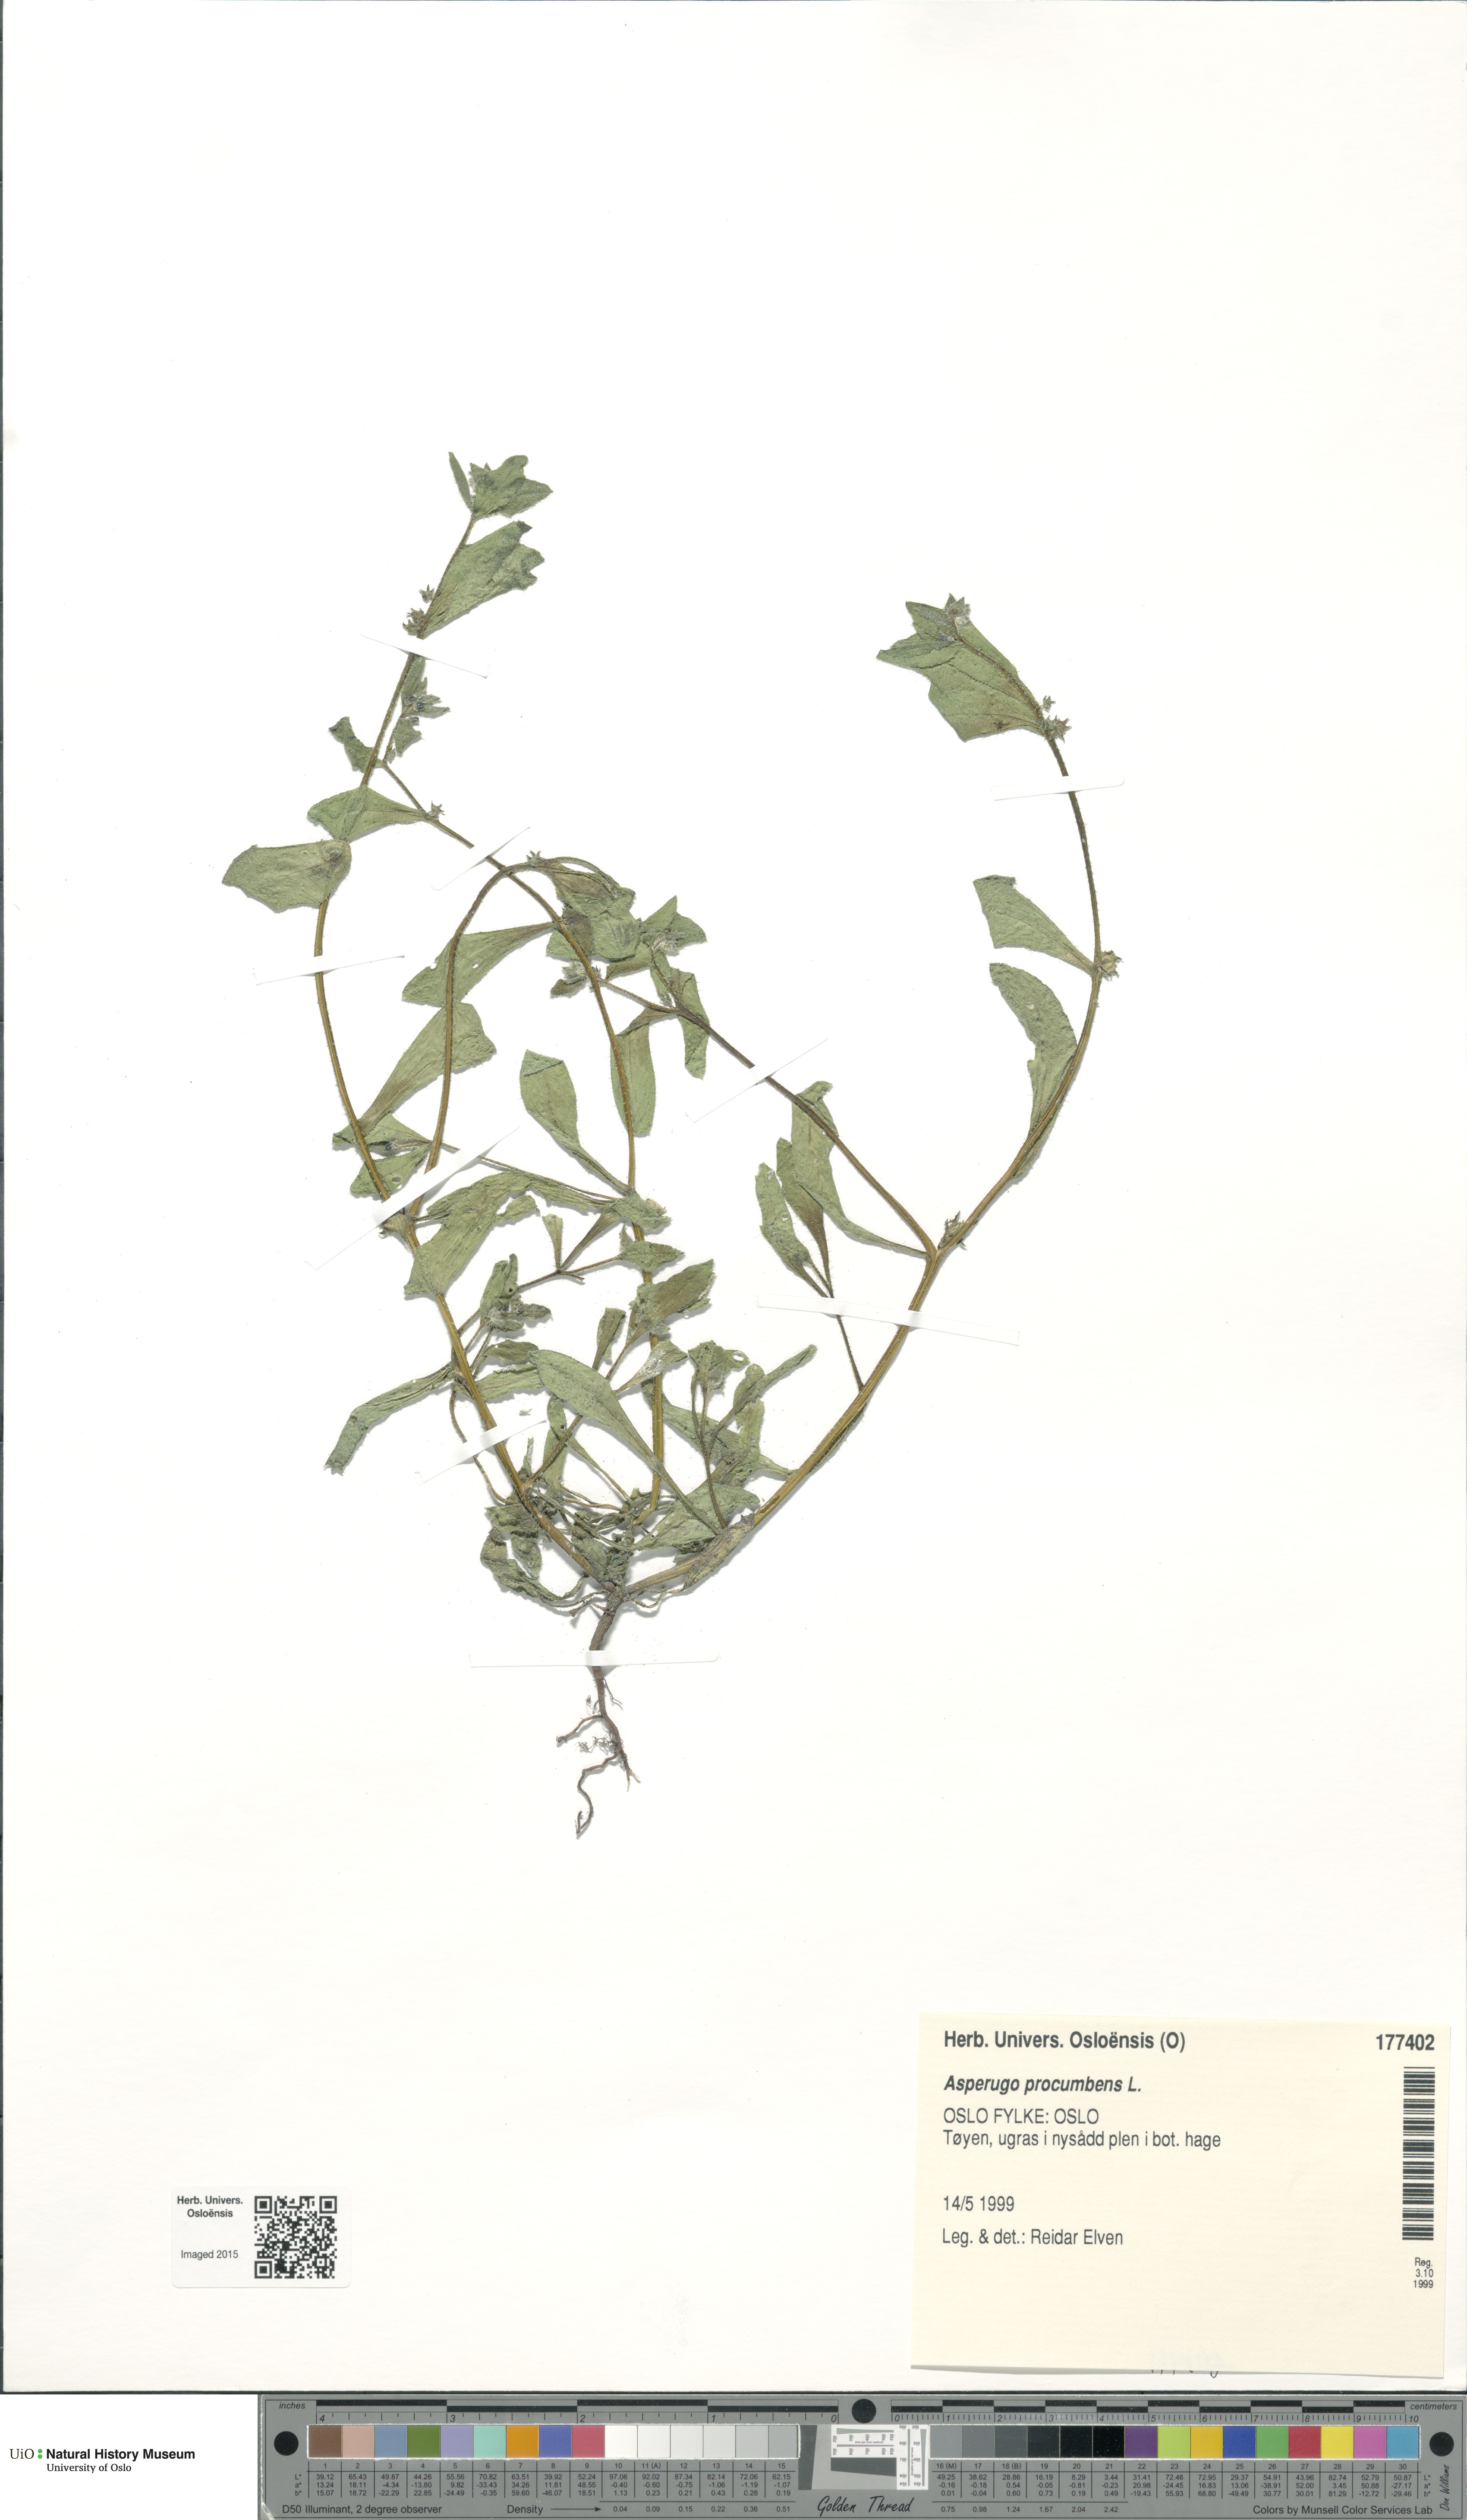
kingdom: Plantae
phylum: Tracheophyta
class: Magnoliopsida
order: Boraginales
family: Boraginaceae
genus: Asperugo
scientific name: Asperugo procumbens
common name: Madwort
